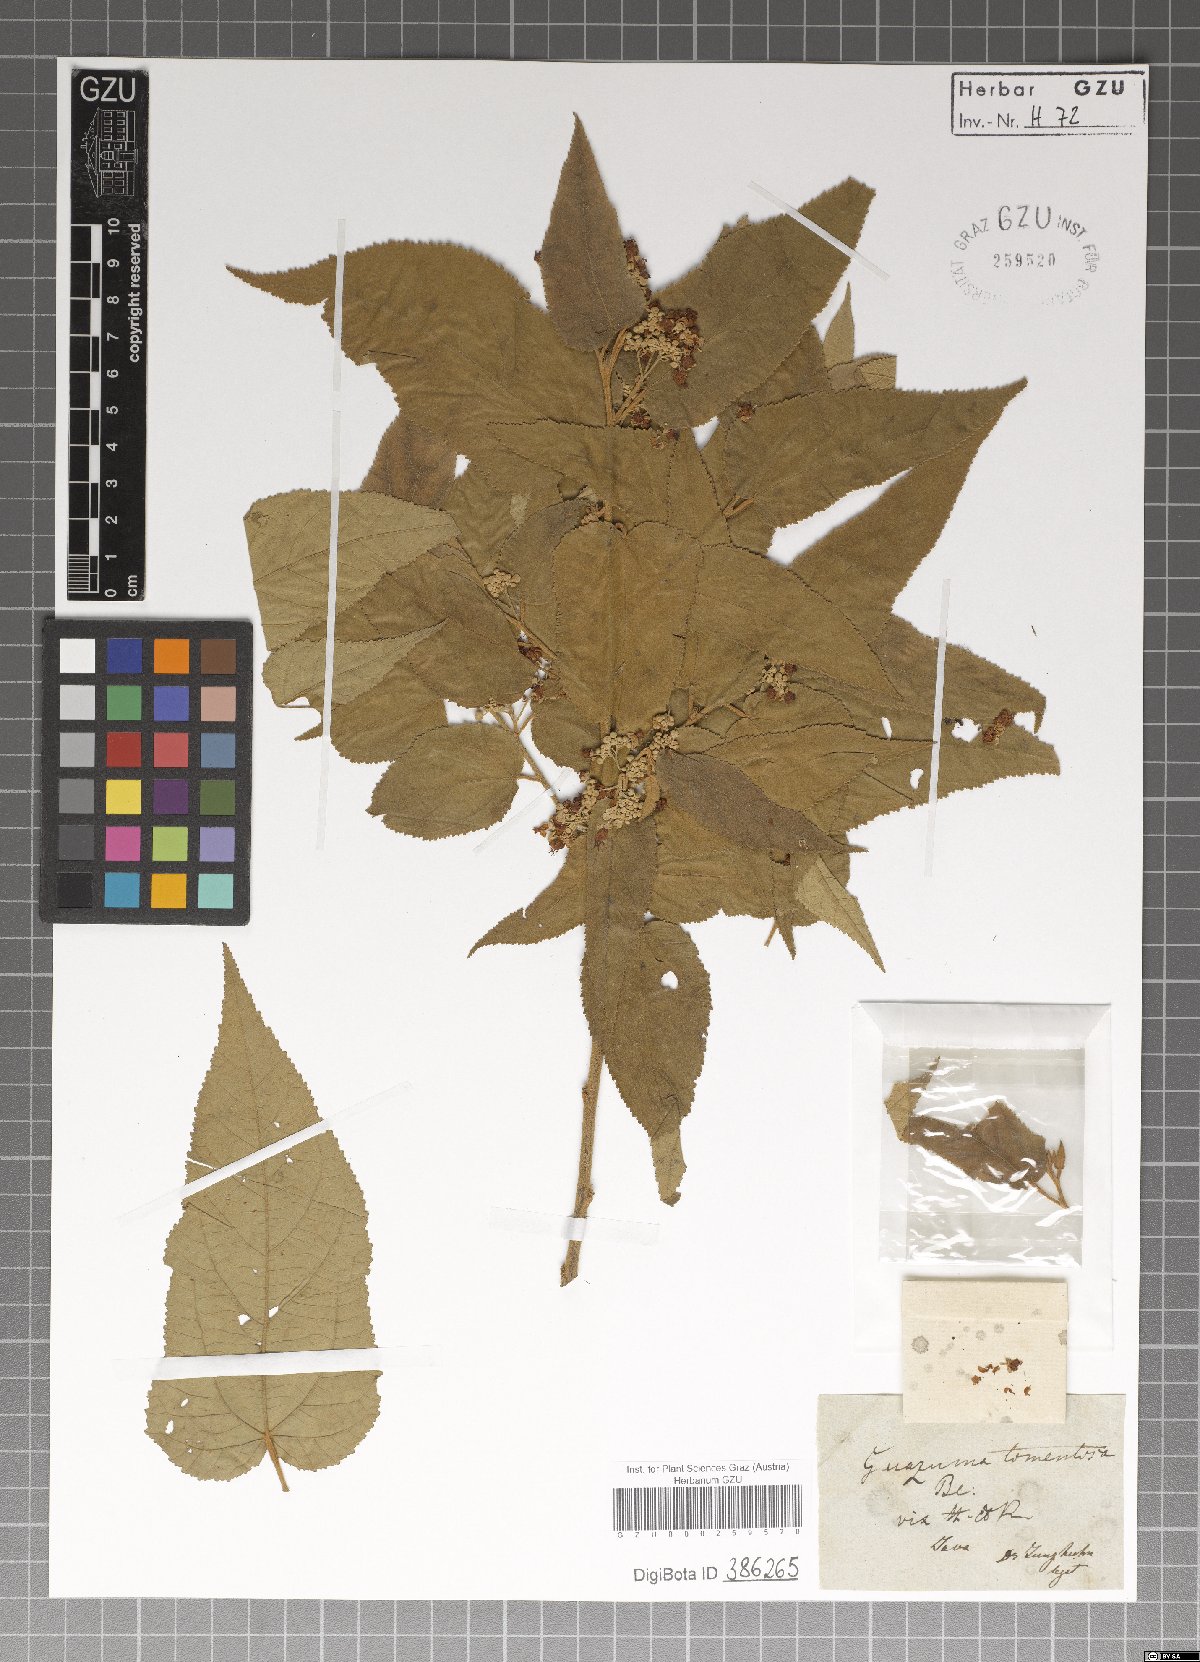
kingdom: Plantae
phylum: Tracheophyta
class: Magnoliopsida
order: Malvales
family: Malvaceae
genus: Guazuma
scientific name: Guazuma
